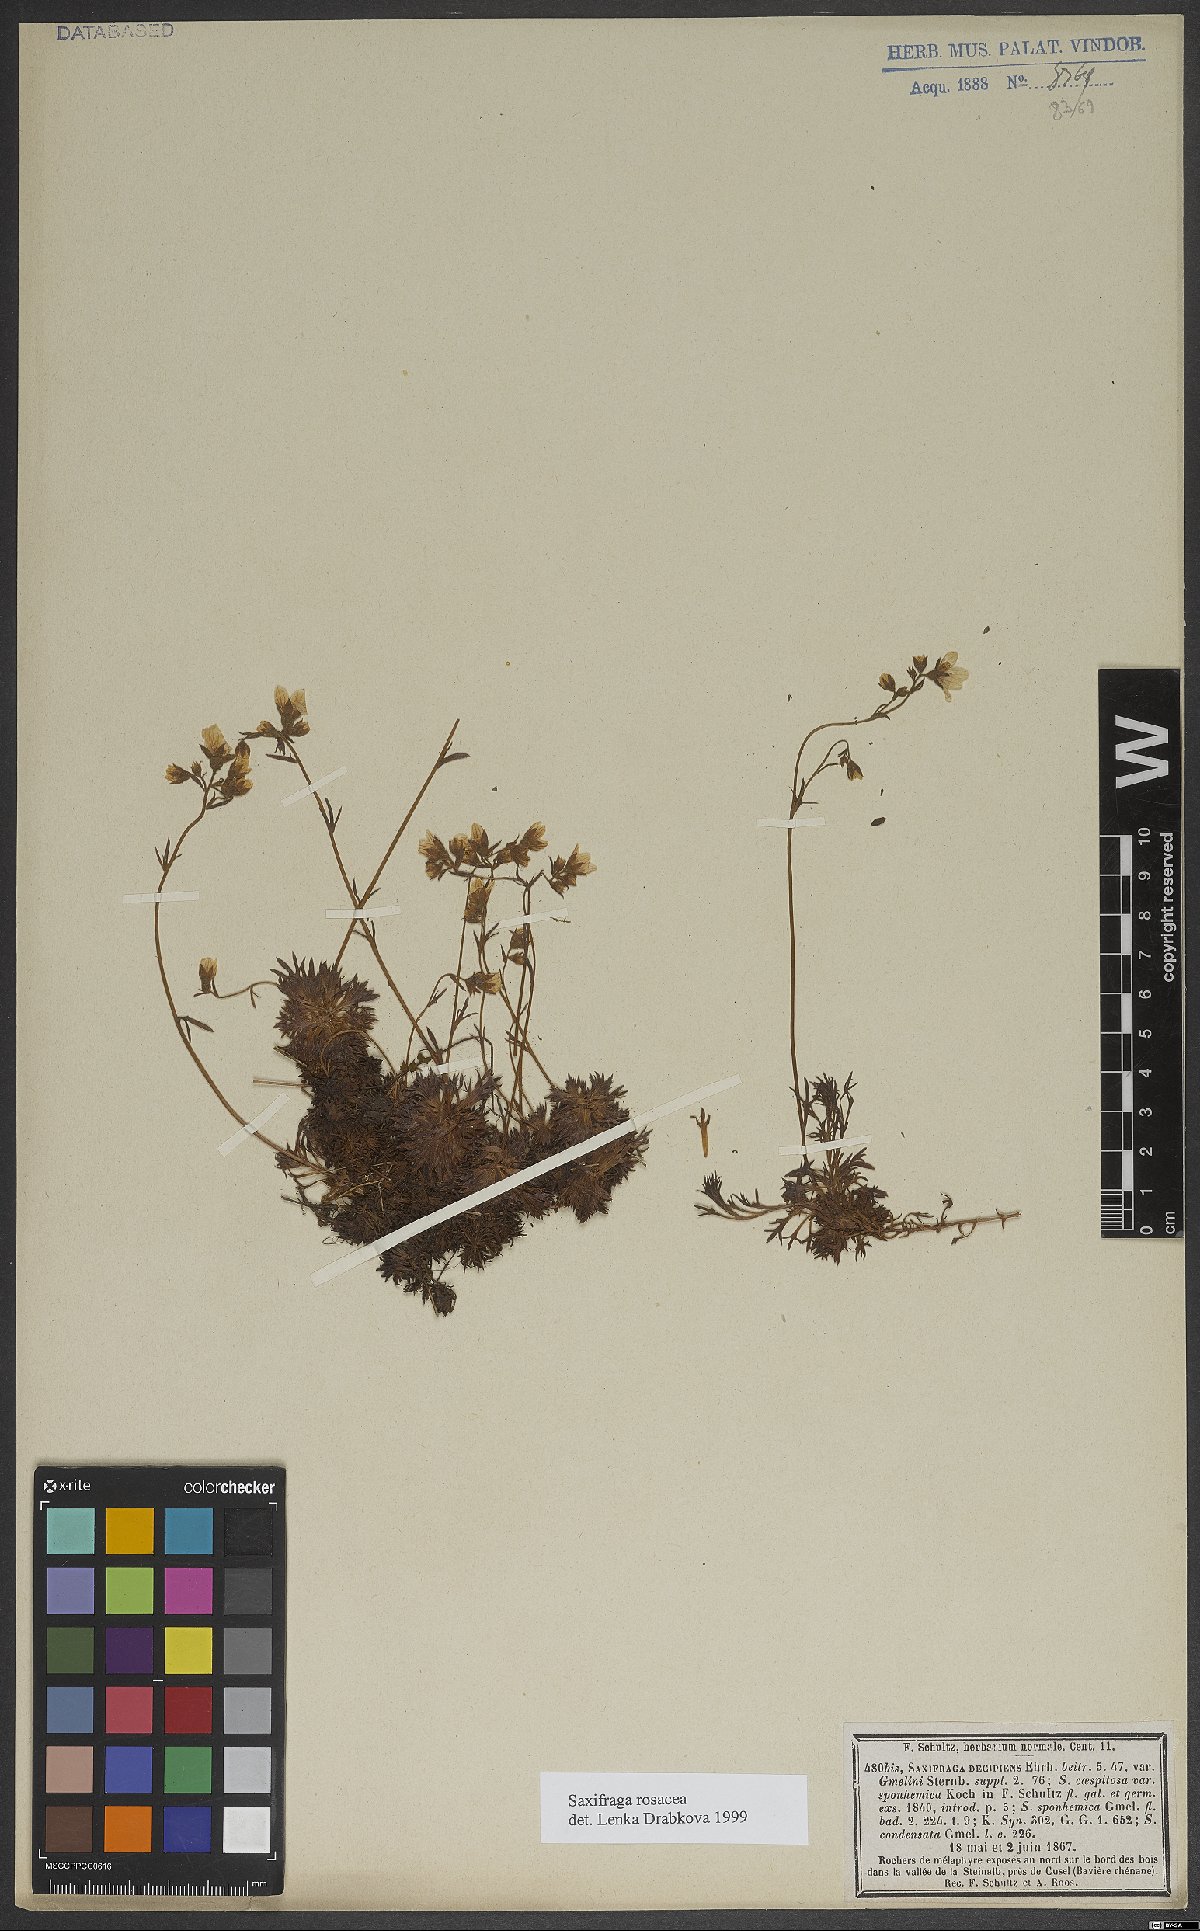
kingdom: Plantae
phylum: Tracheophyta
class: Magnoliopsida
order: Saxifragales
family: Saxifragaceae
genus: Saxifraga
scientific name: Saxifraga rosacea
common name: Irish saxifrage
